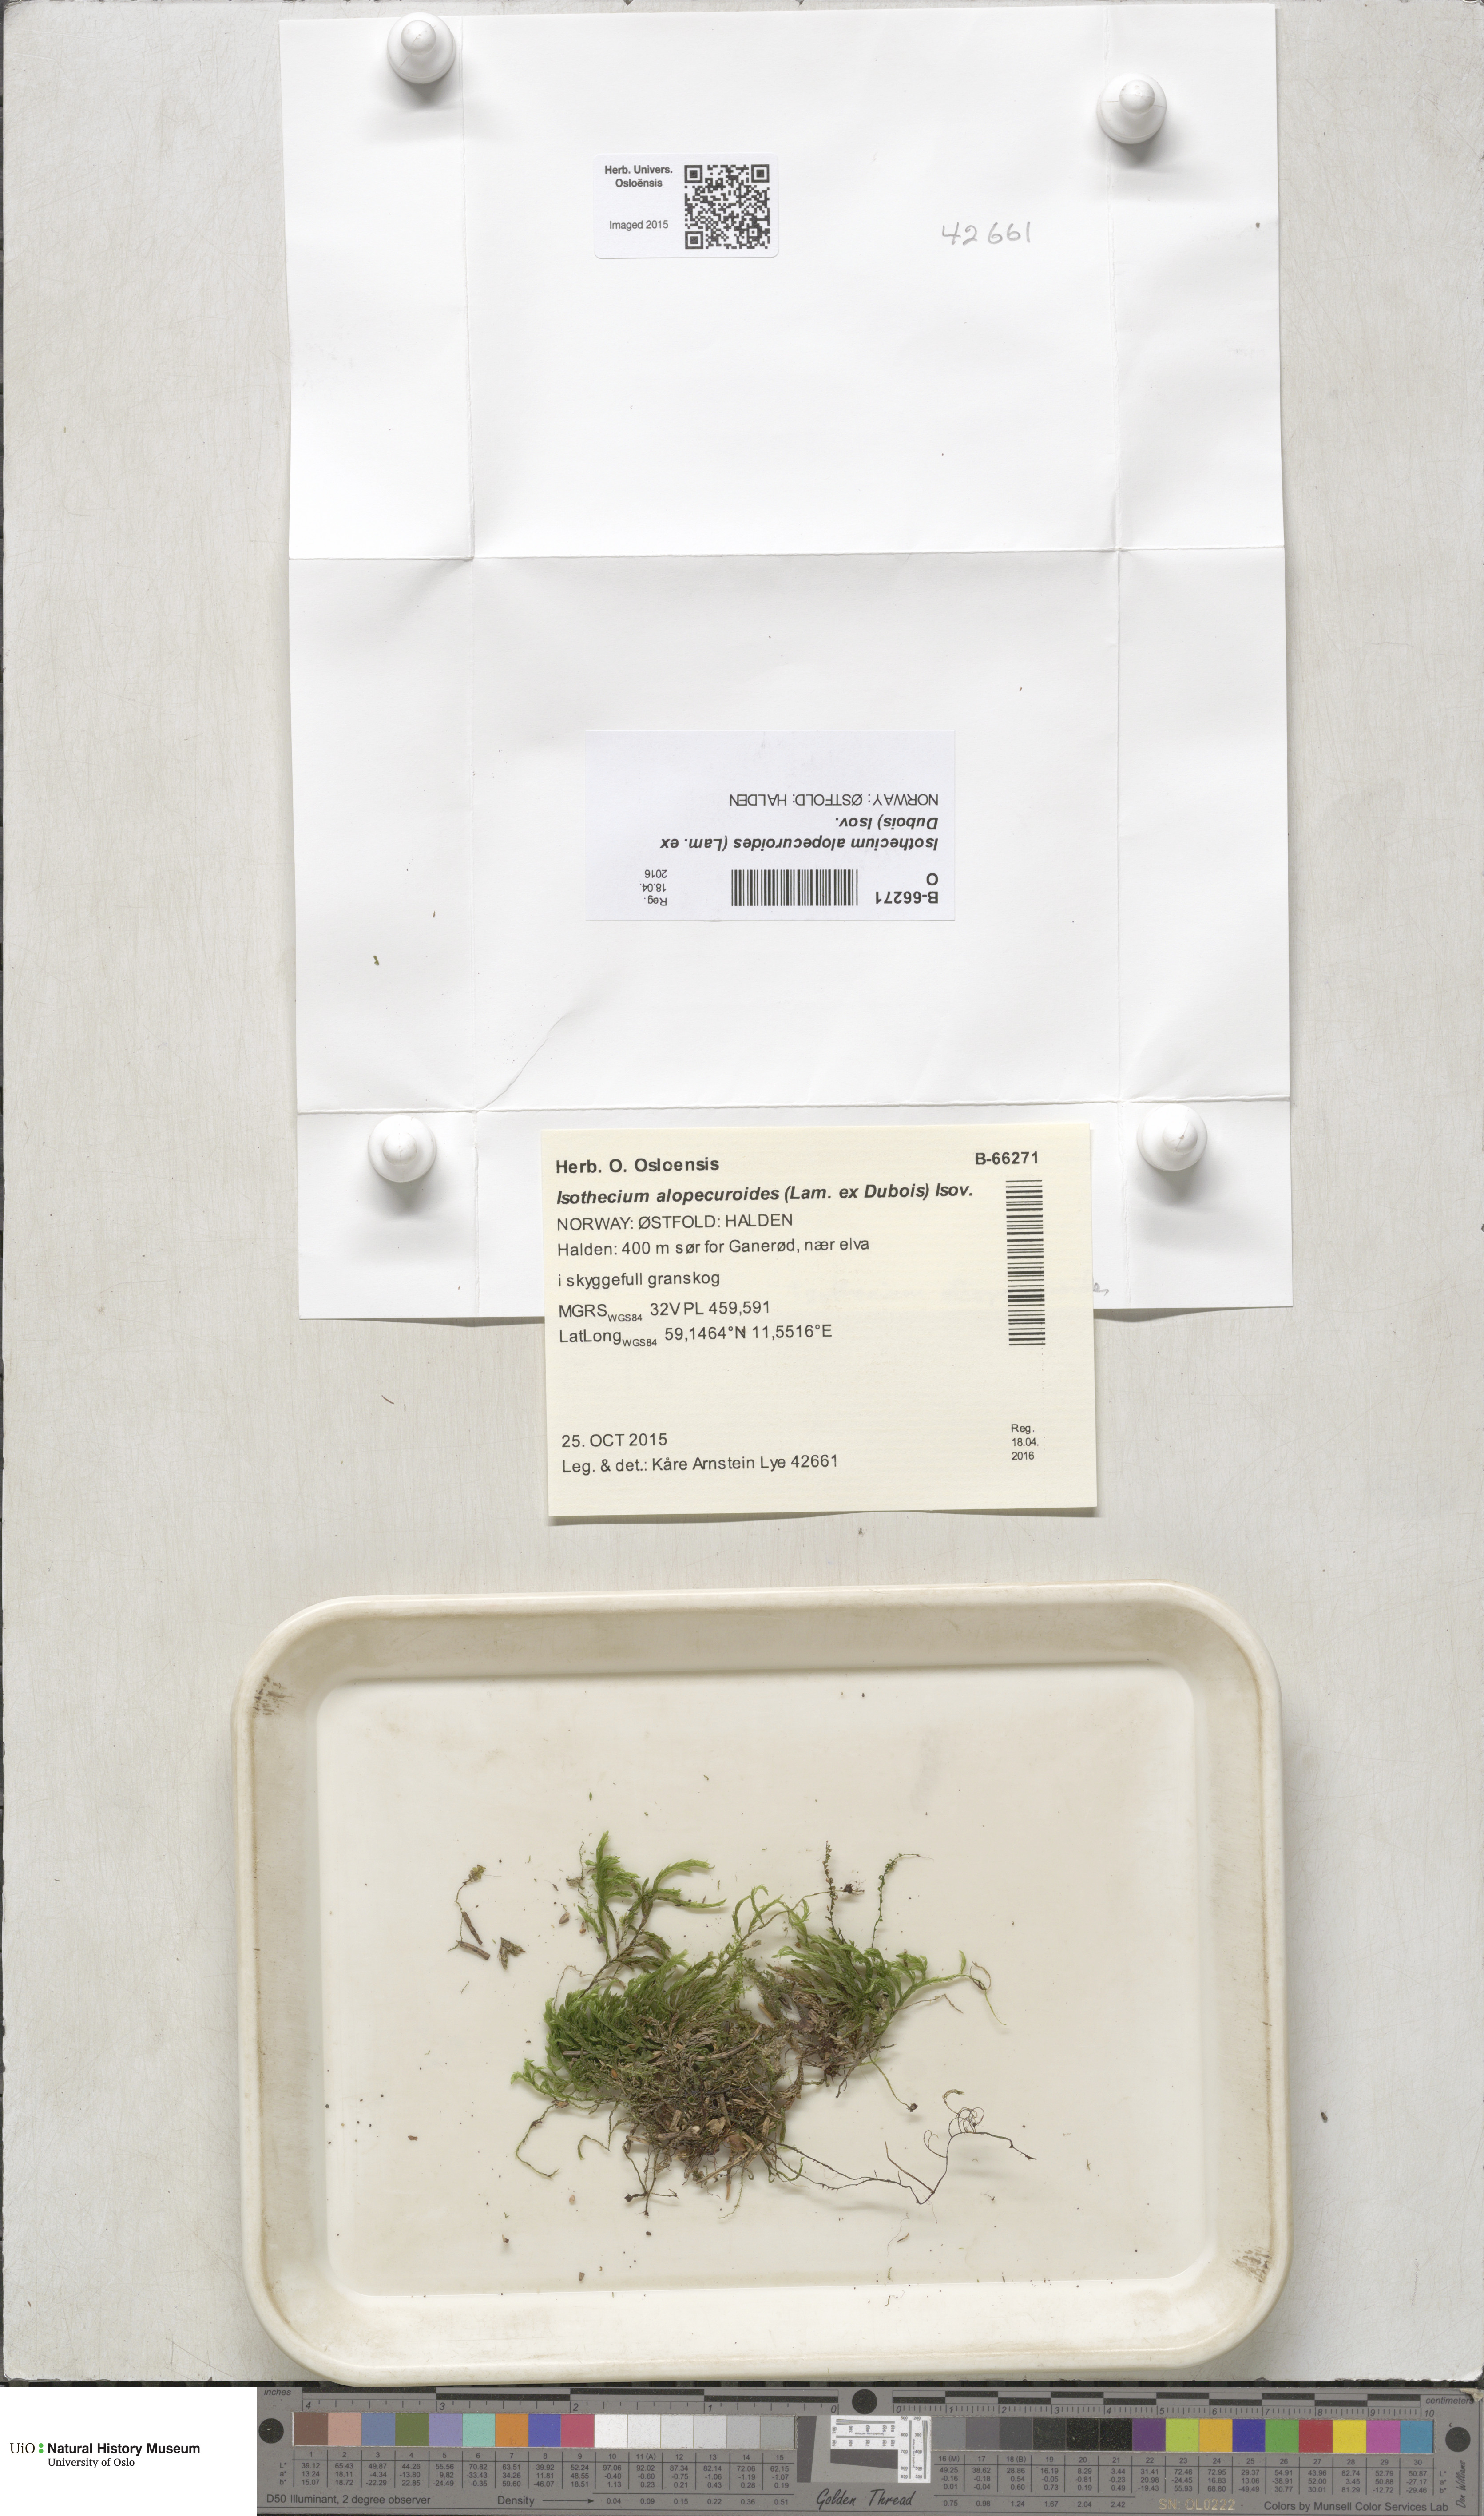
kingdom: Plantae
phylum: Bryophyta
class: Bryopsida
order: Hypnales
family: Lembophyllaceae
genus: Isothecium
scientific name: Isothecium alopecuroides
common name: Larger mouse-tail moss
